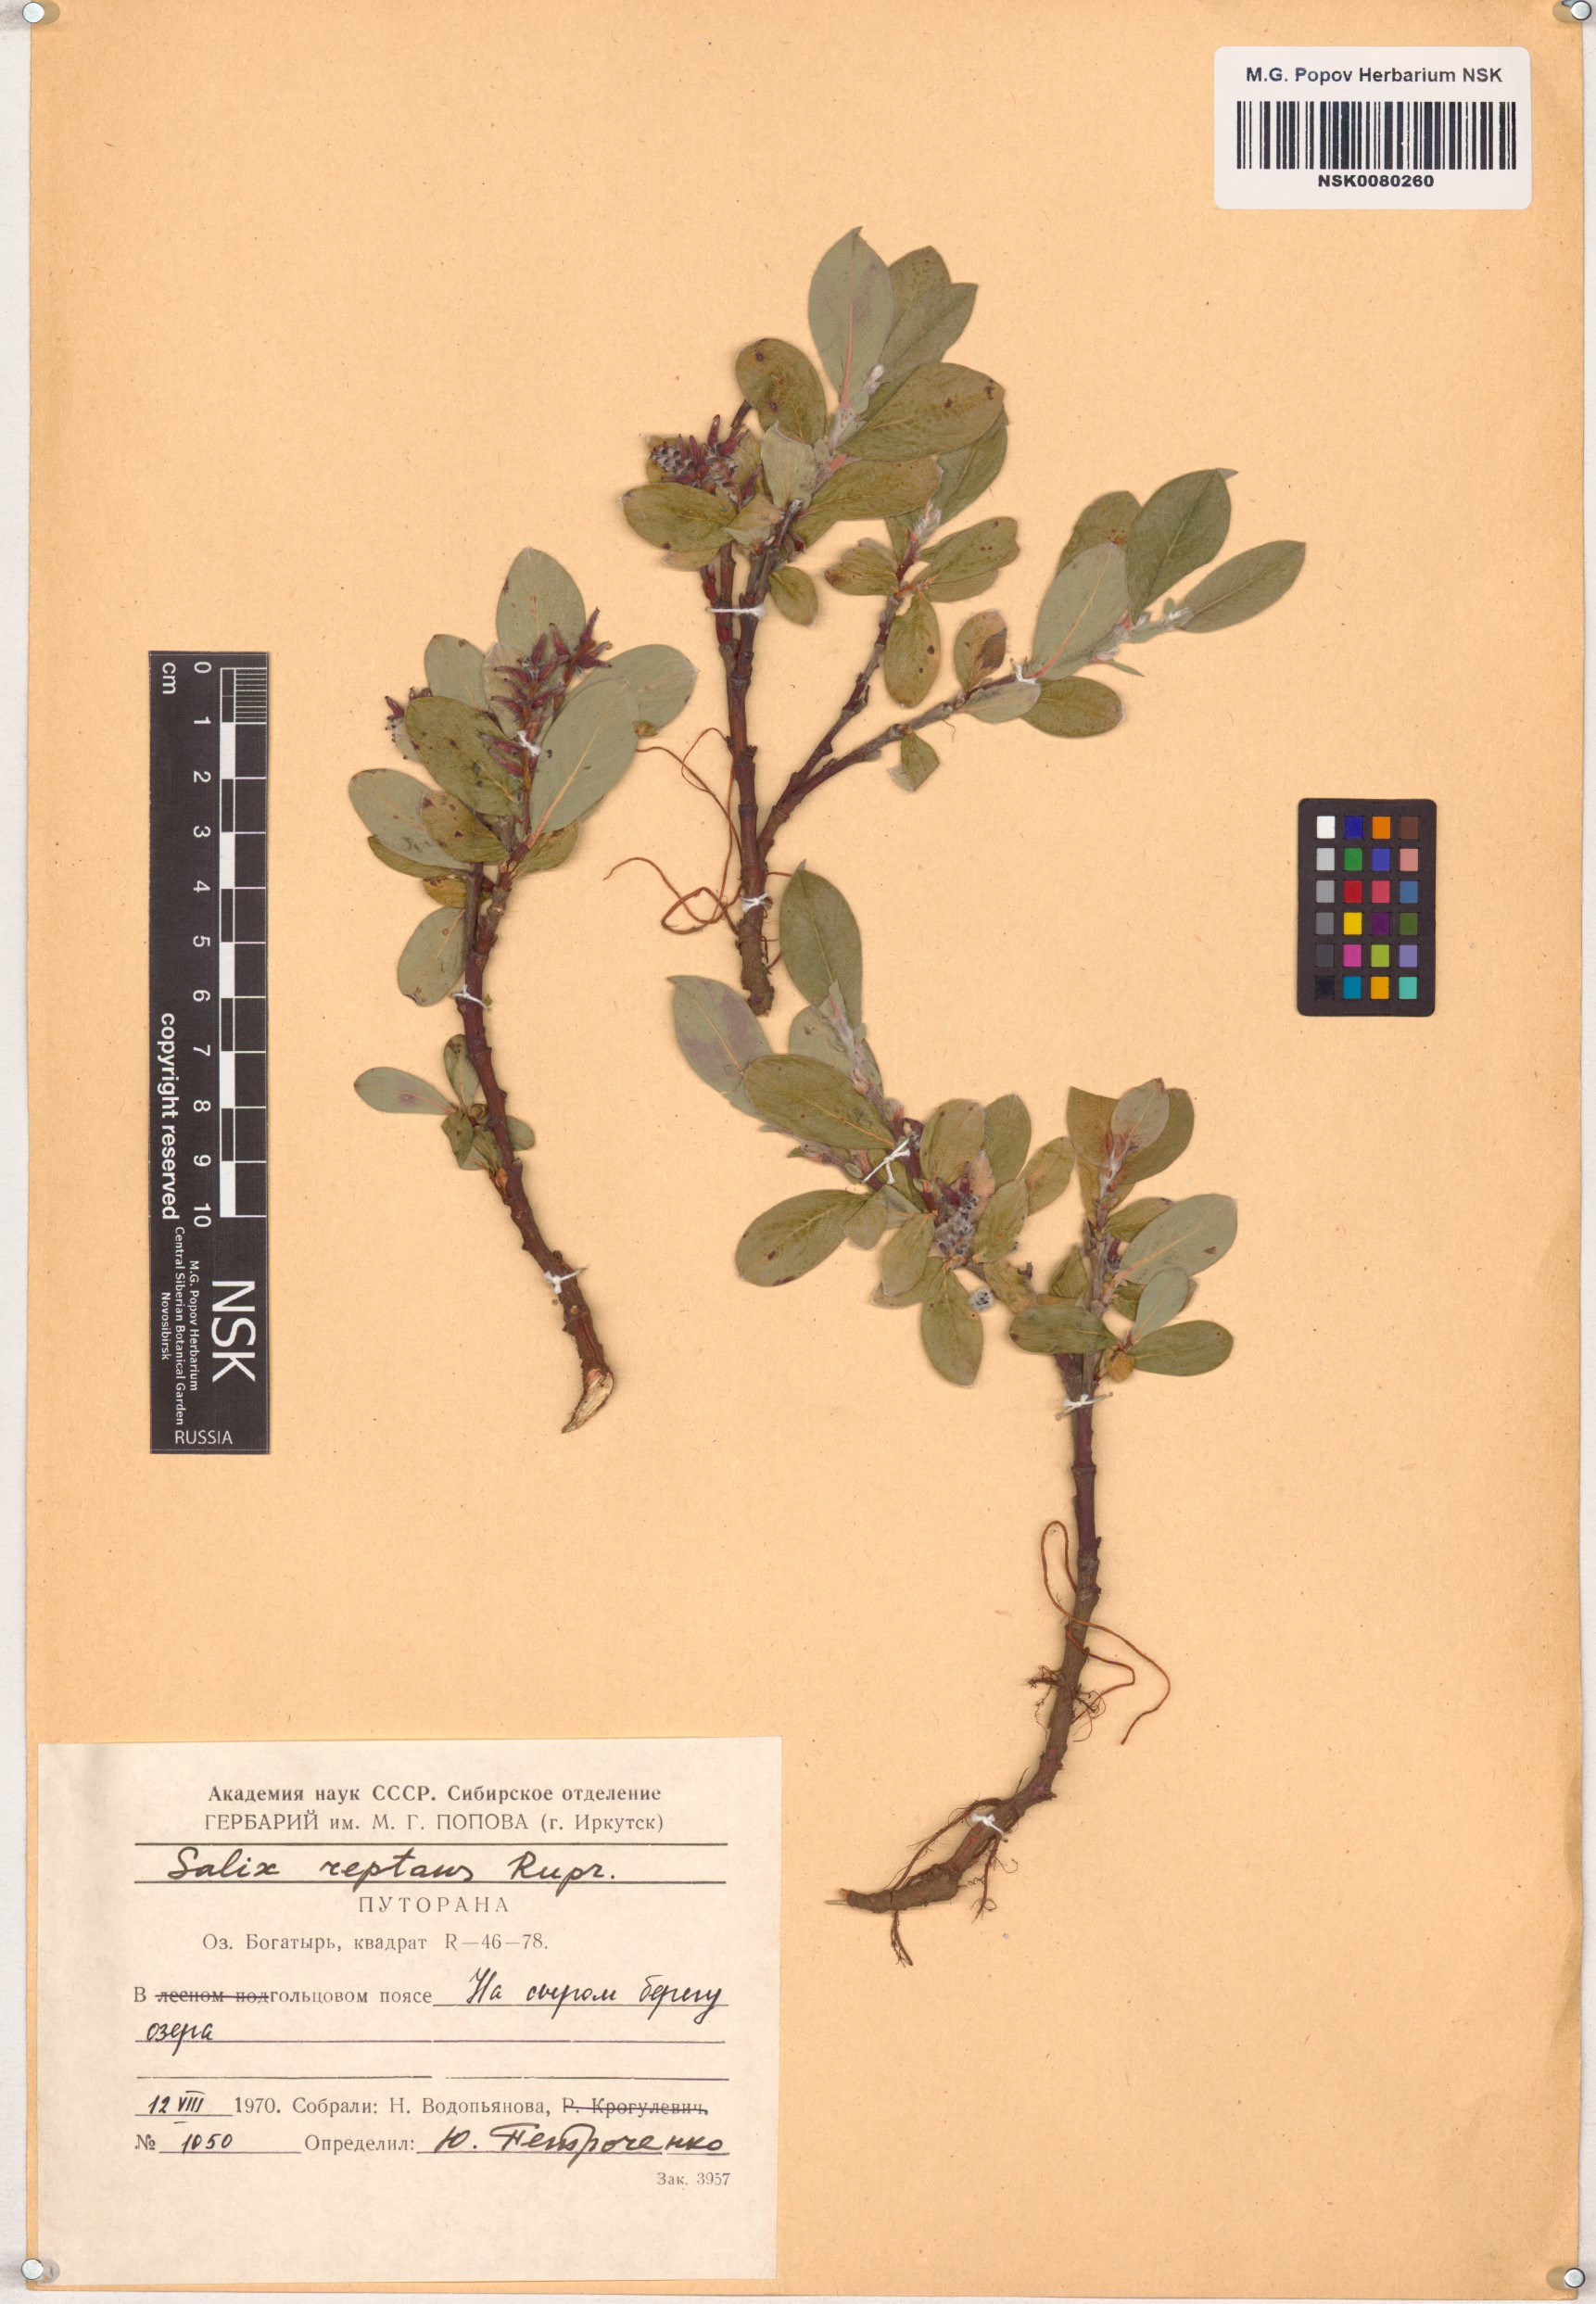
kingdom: Plantae
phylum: Tracheophyta
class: Magnoliopsida
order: Malpighiales
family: Salicaceae
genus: Salix
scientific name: Salix reptans
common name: Arctic creeping willow
